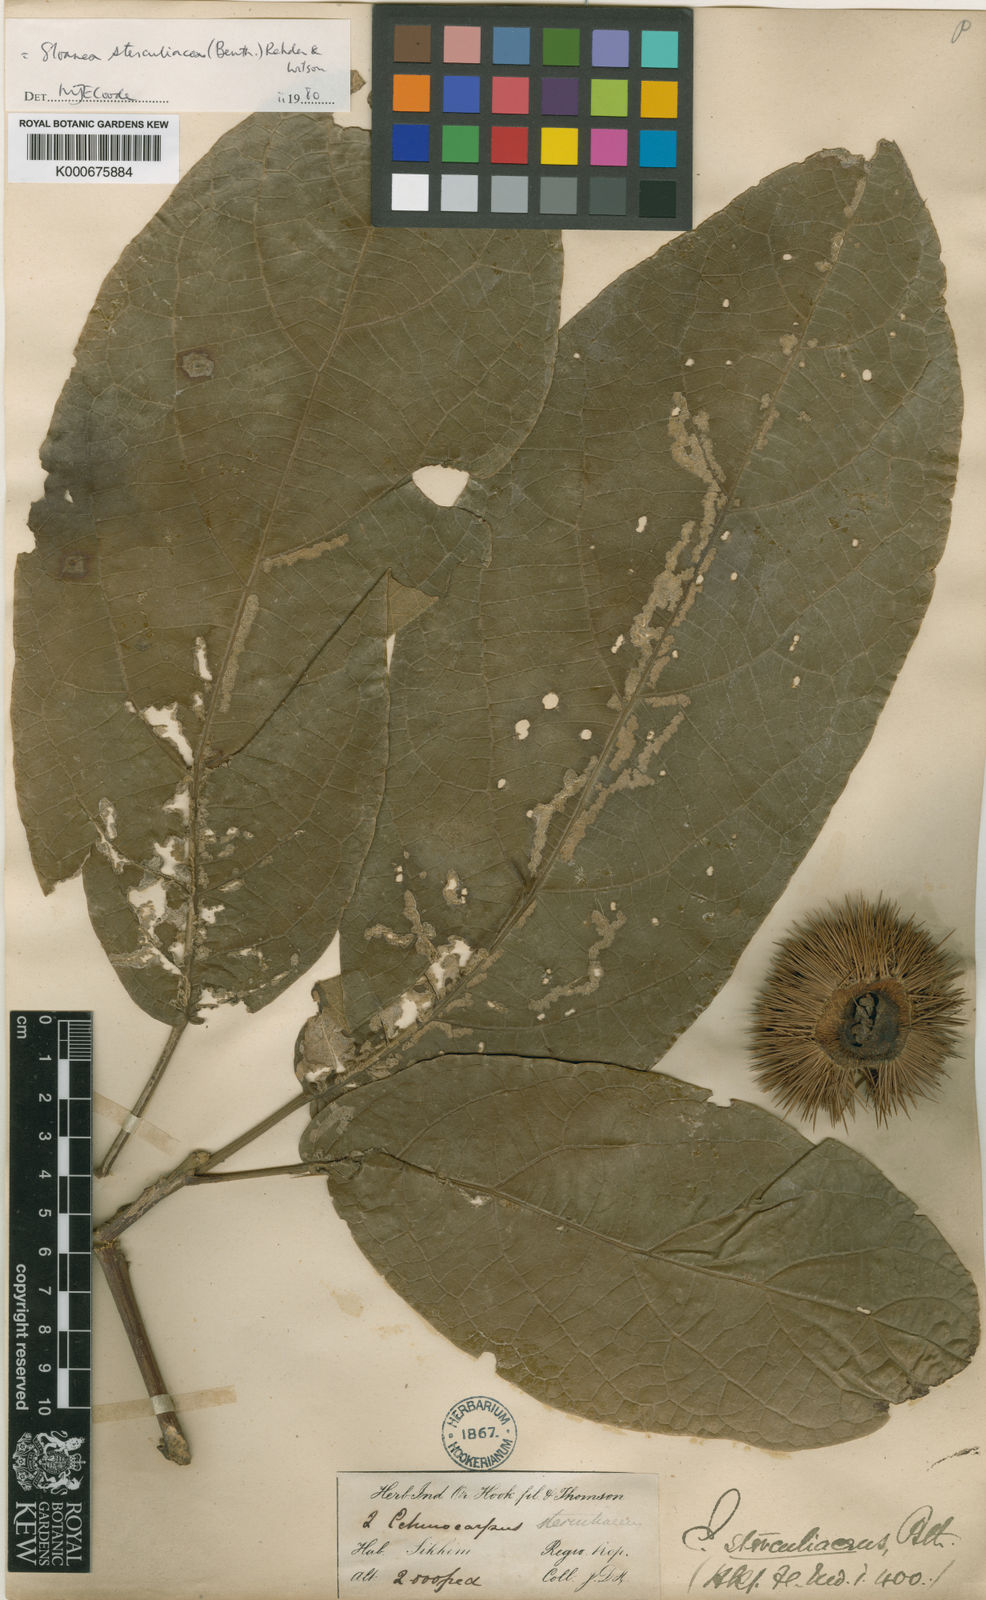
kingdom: Plantae
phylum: Tracheophyta
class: Magnoliopsida
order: Oxalidales
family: Elaeocarpaceae
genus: Sloanea
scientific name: Sloanea sterculiacea
